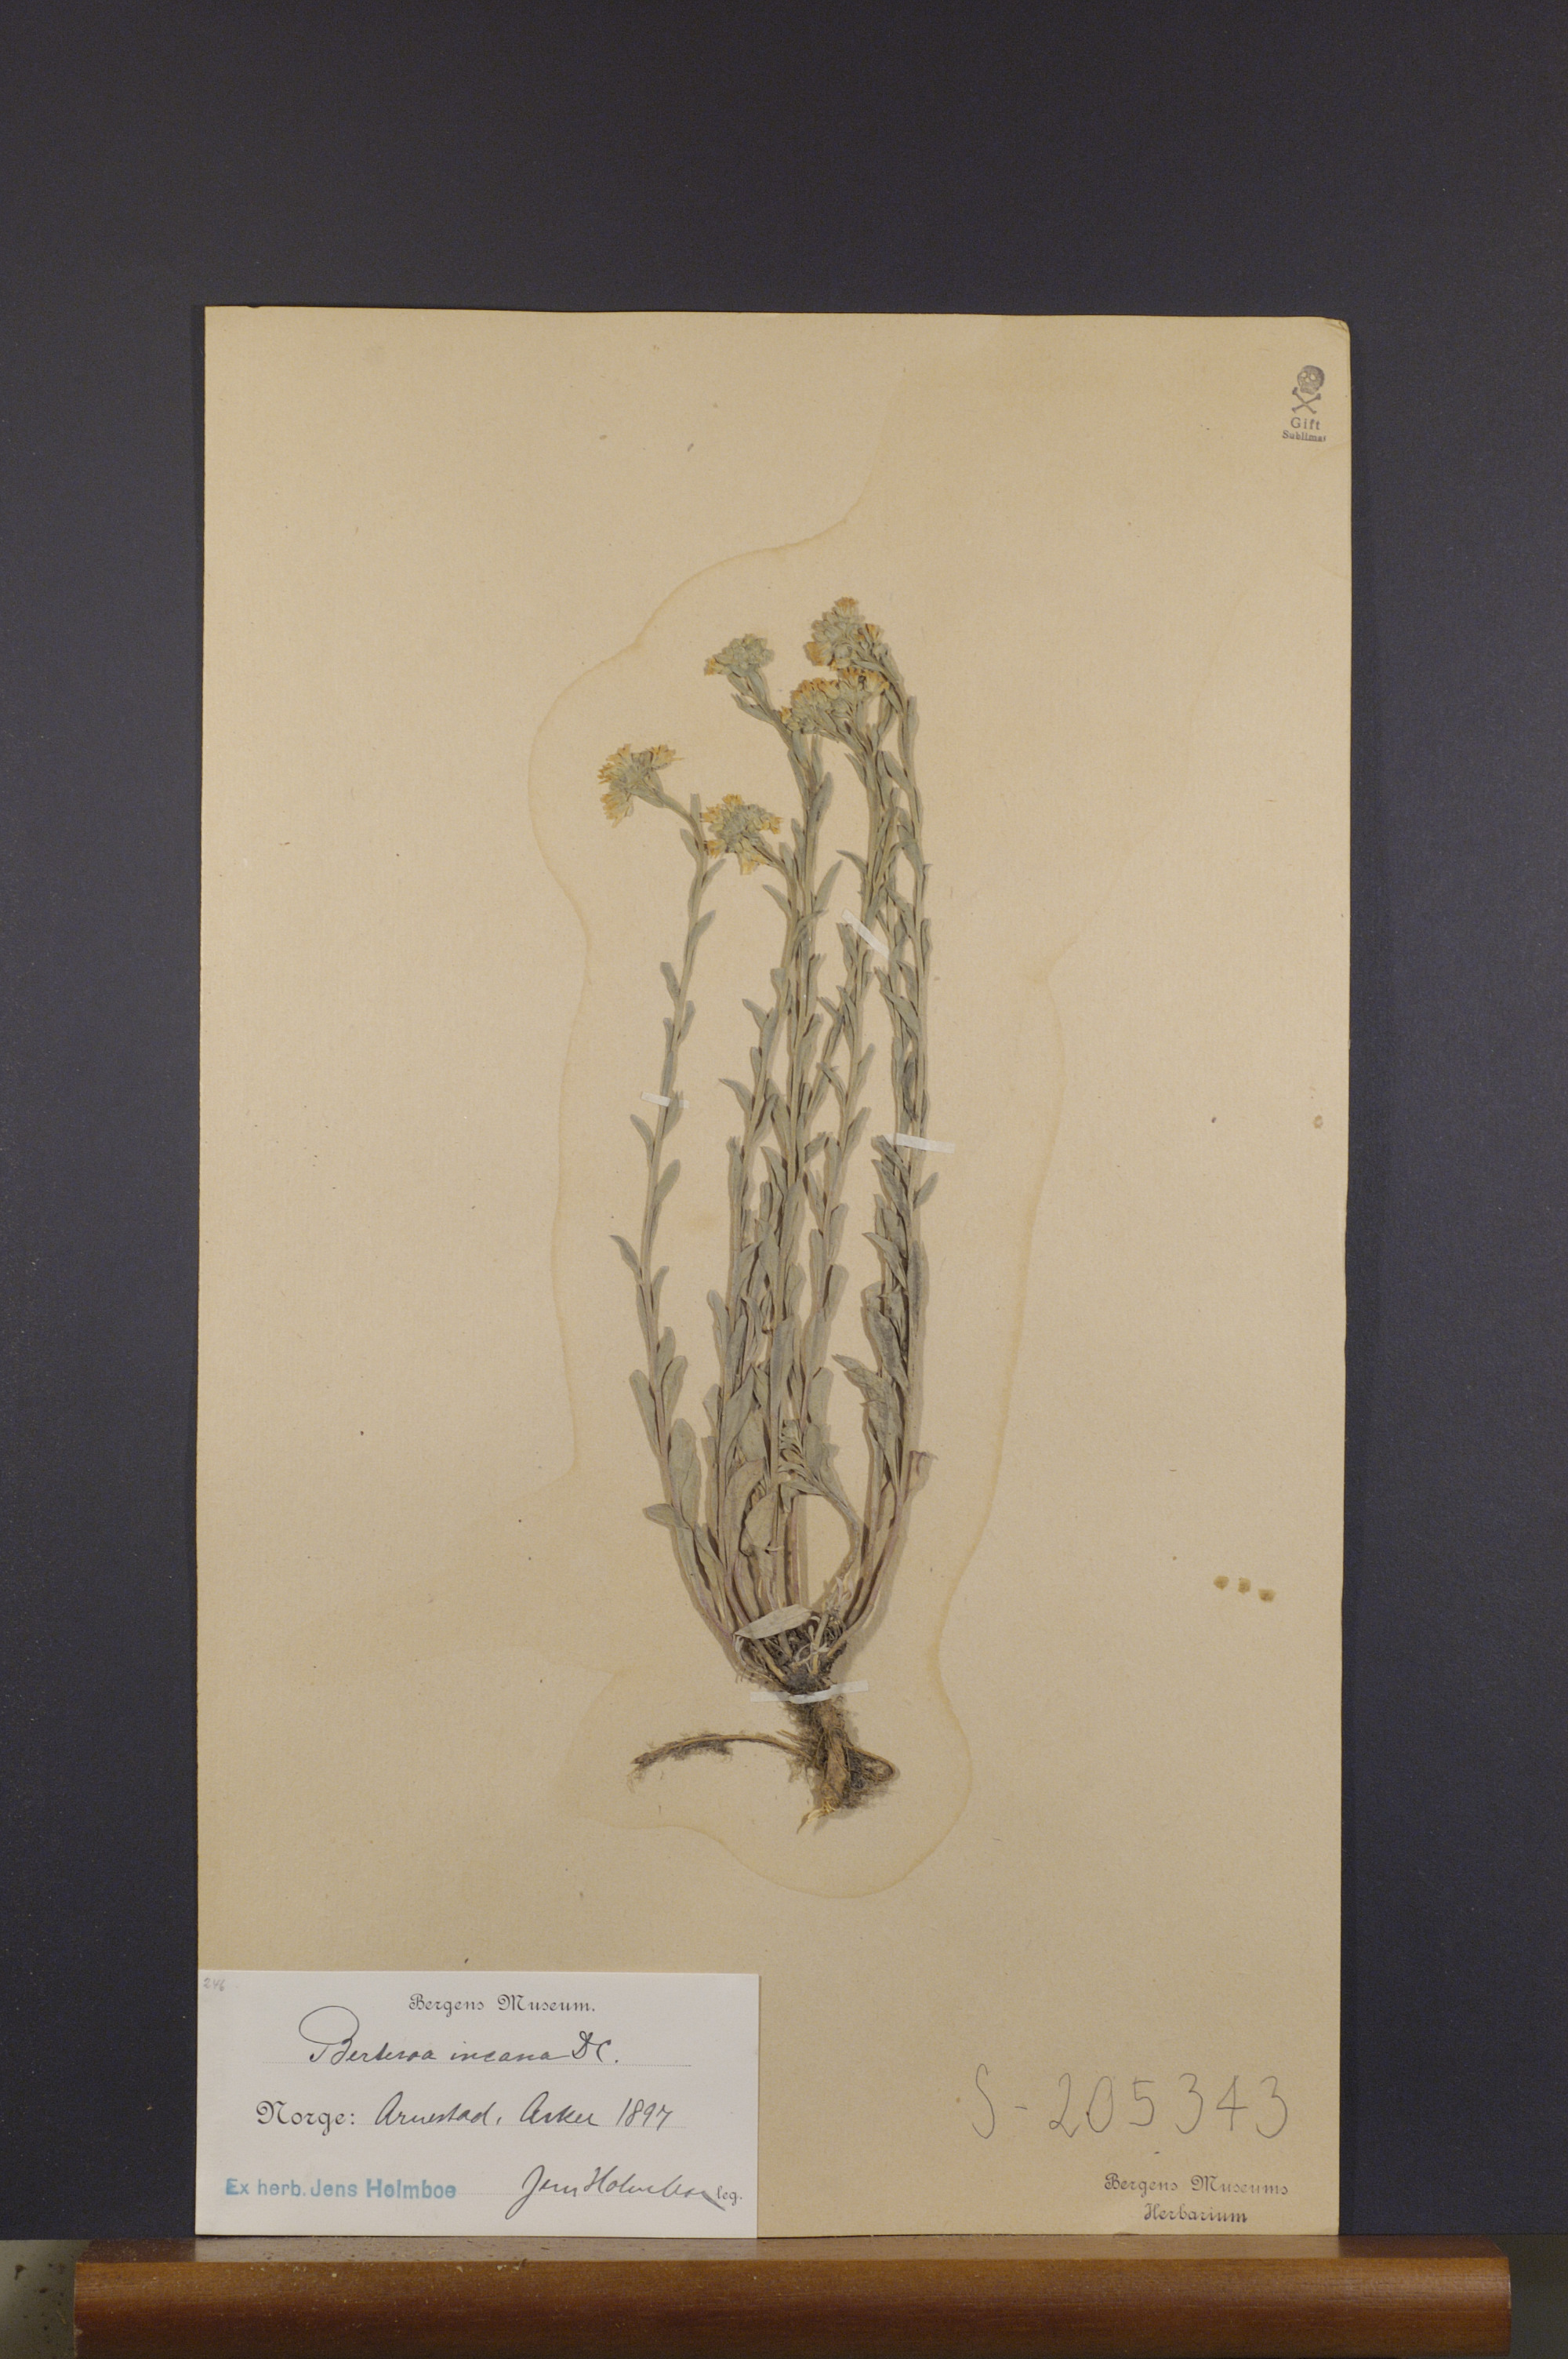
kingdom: Plantae
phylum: Tracheophyta
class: Magnoliopsida
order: Brassicales
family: Brassicaceae
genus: Berteroa
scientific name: Berteroa incana
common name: Hoary alison
